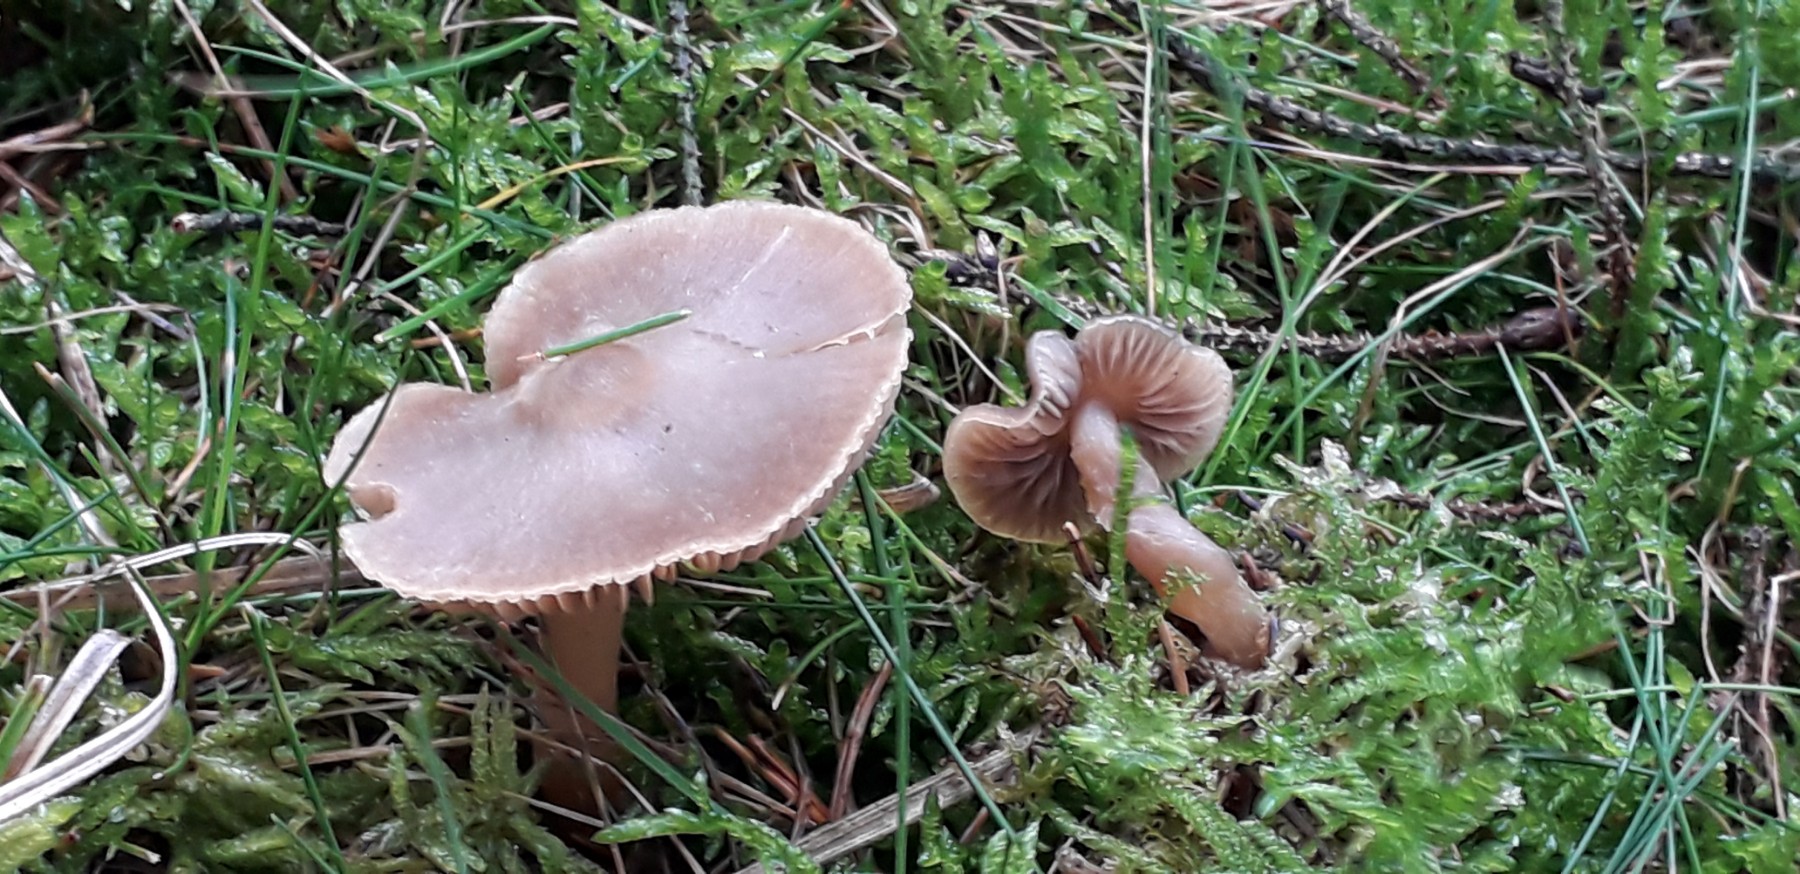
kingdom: Fungi
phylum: Basidiomycota
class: Agaricomycetes
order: Agaricales
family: Entolomataceae
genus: Entoloma
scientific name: Entoloma
